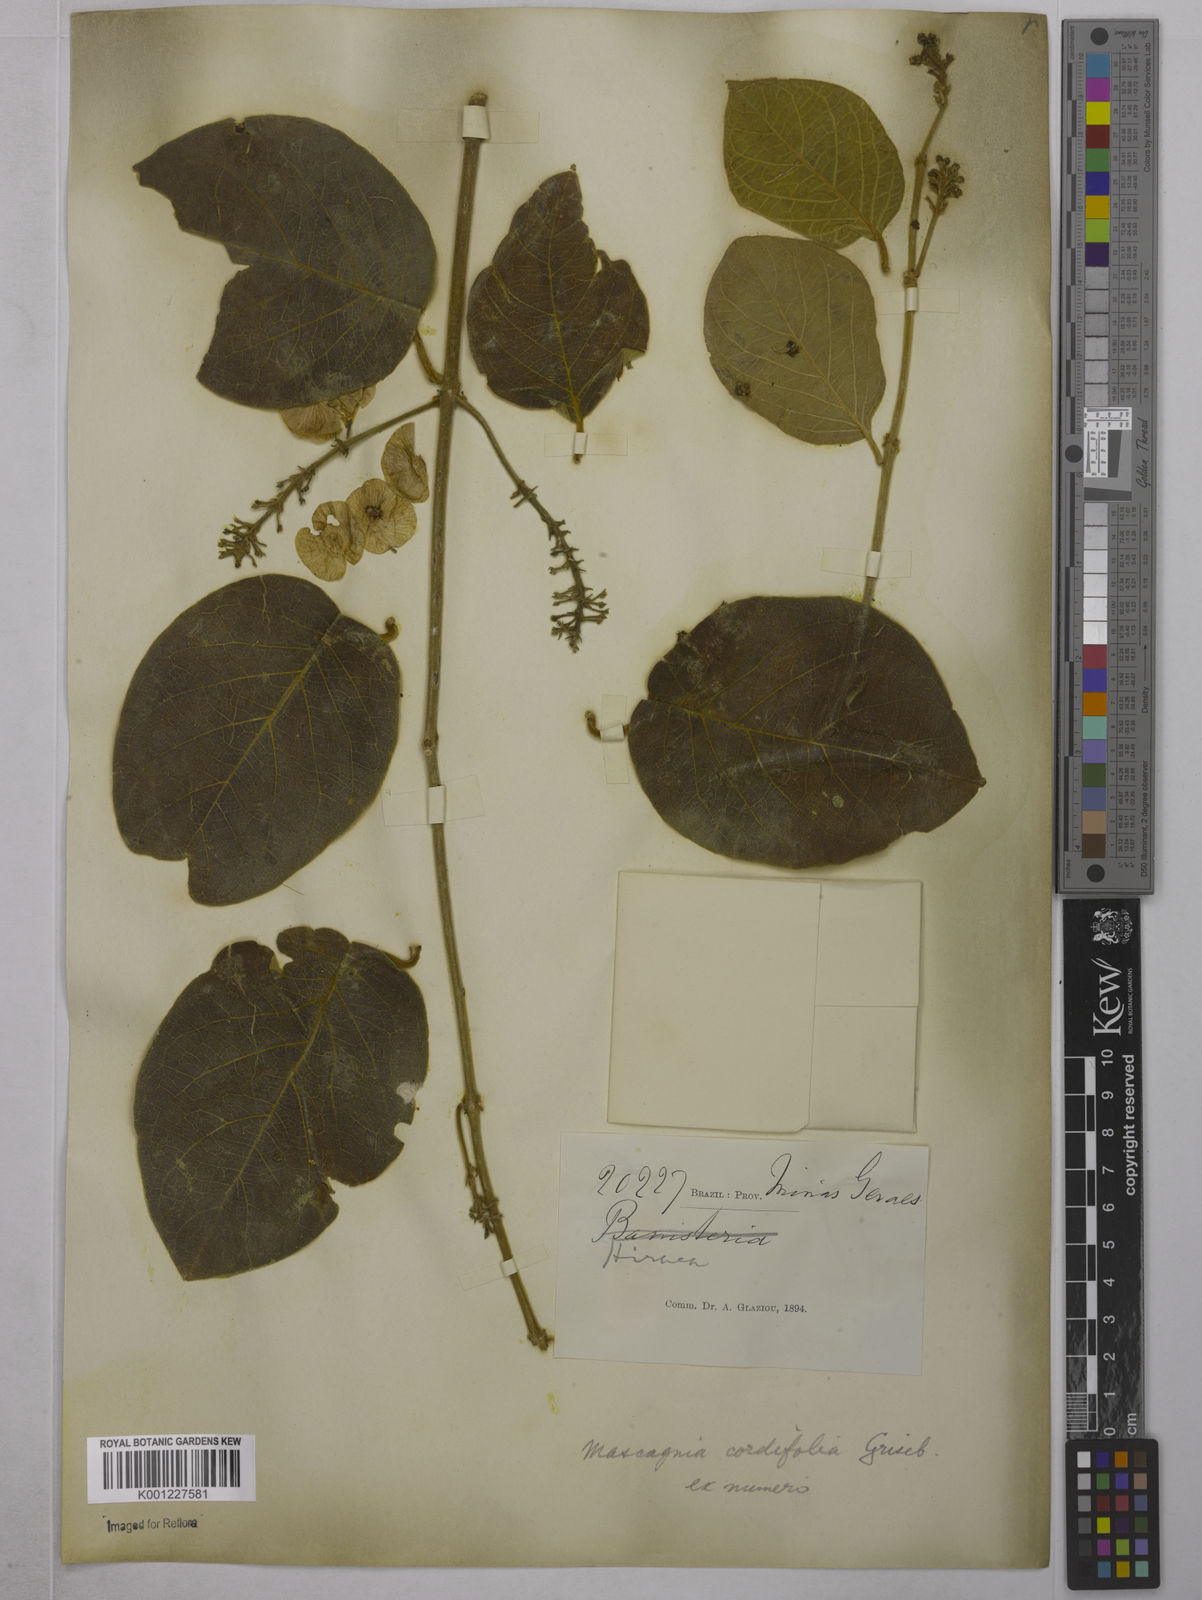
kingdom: Plantae
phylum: Tracheophyta
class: Magnoliopsida
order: Malpighiales
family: Malpighiaceae
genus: Mascagnia
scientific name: Mascagnia cordifolia
